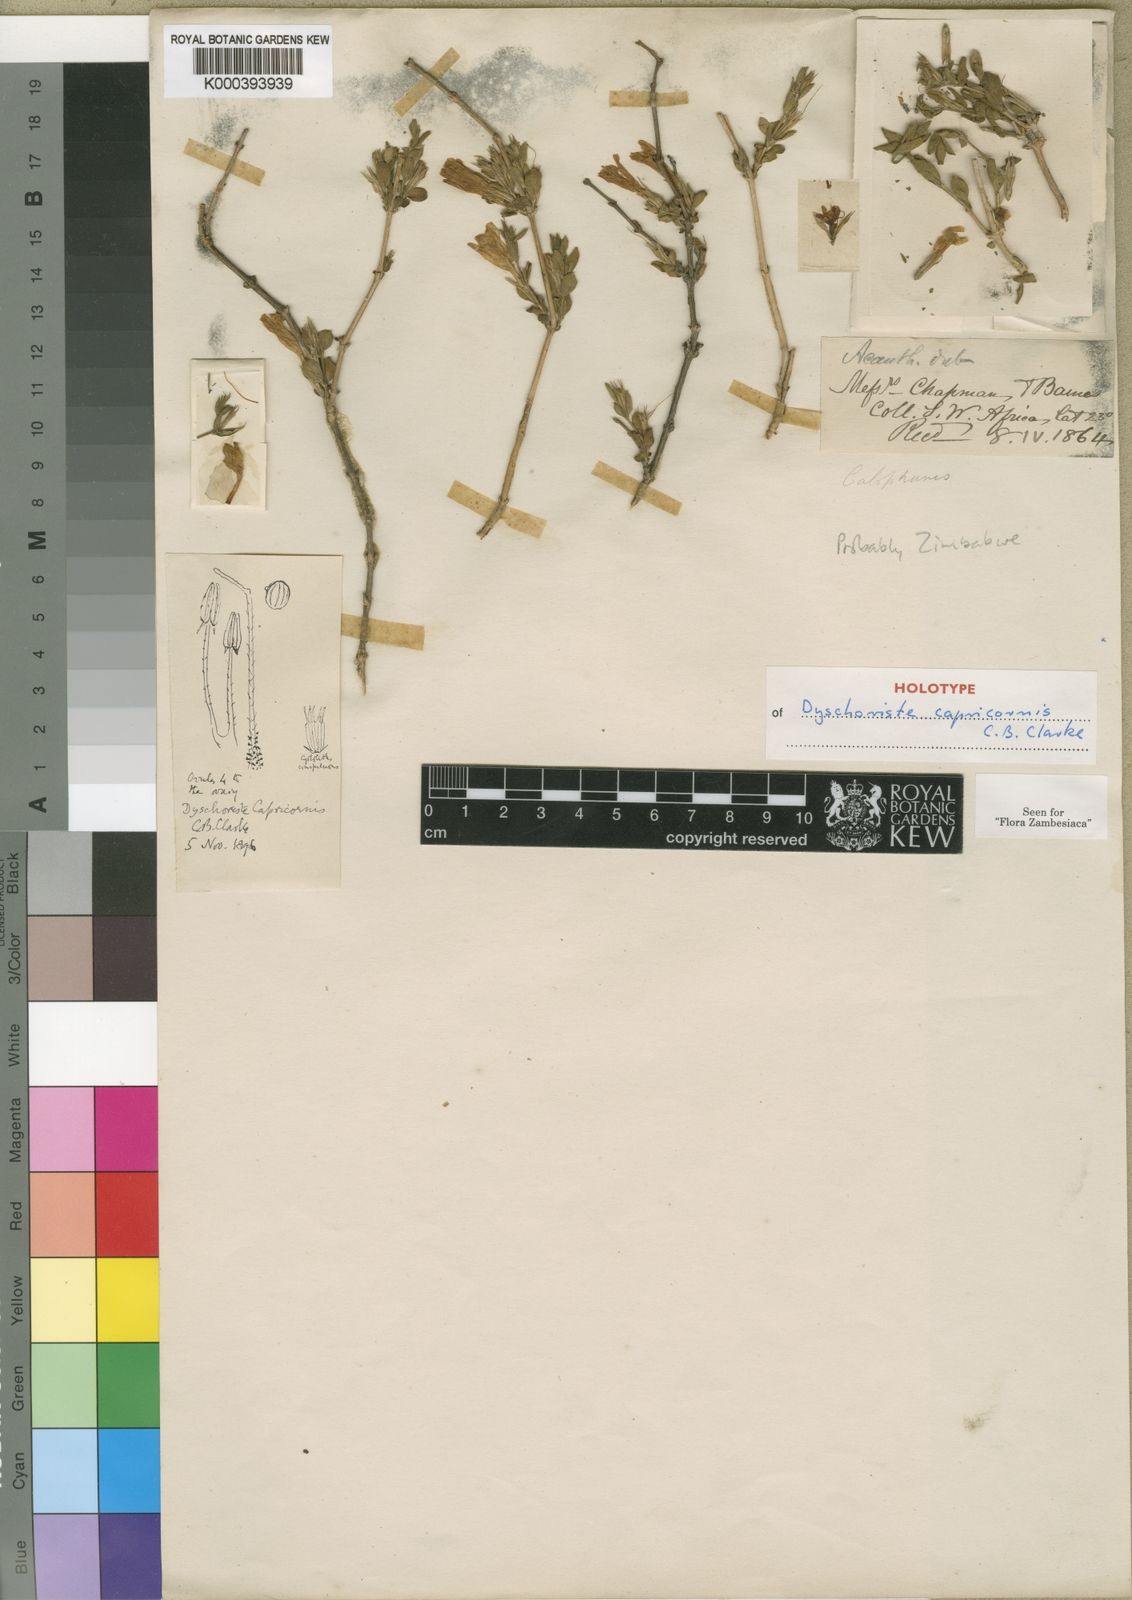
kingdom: Plantae
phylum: Tracheophyta
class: Magnoliopsida
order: Lamiales
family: Acanthaceae
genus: Dyschoriste
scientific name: Dyschoriste capricornis
